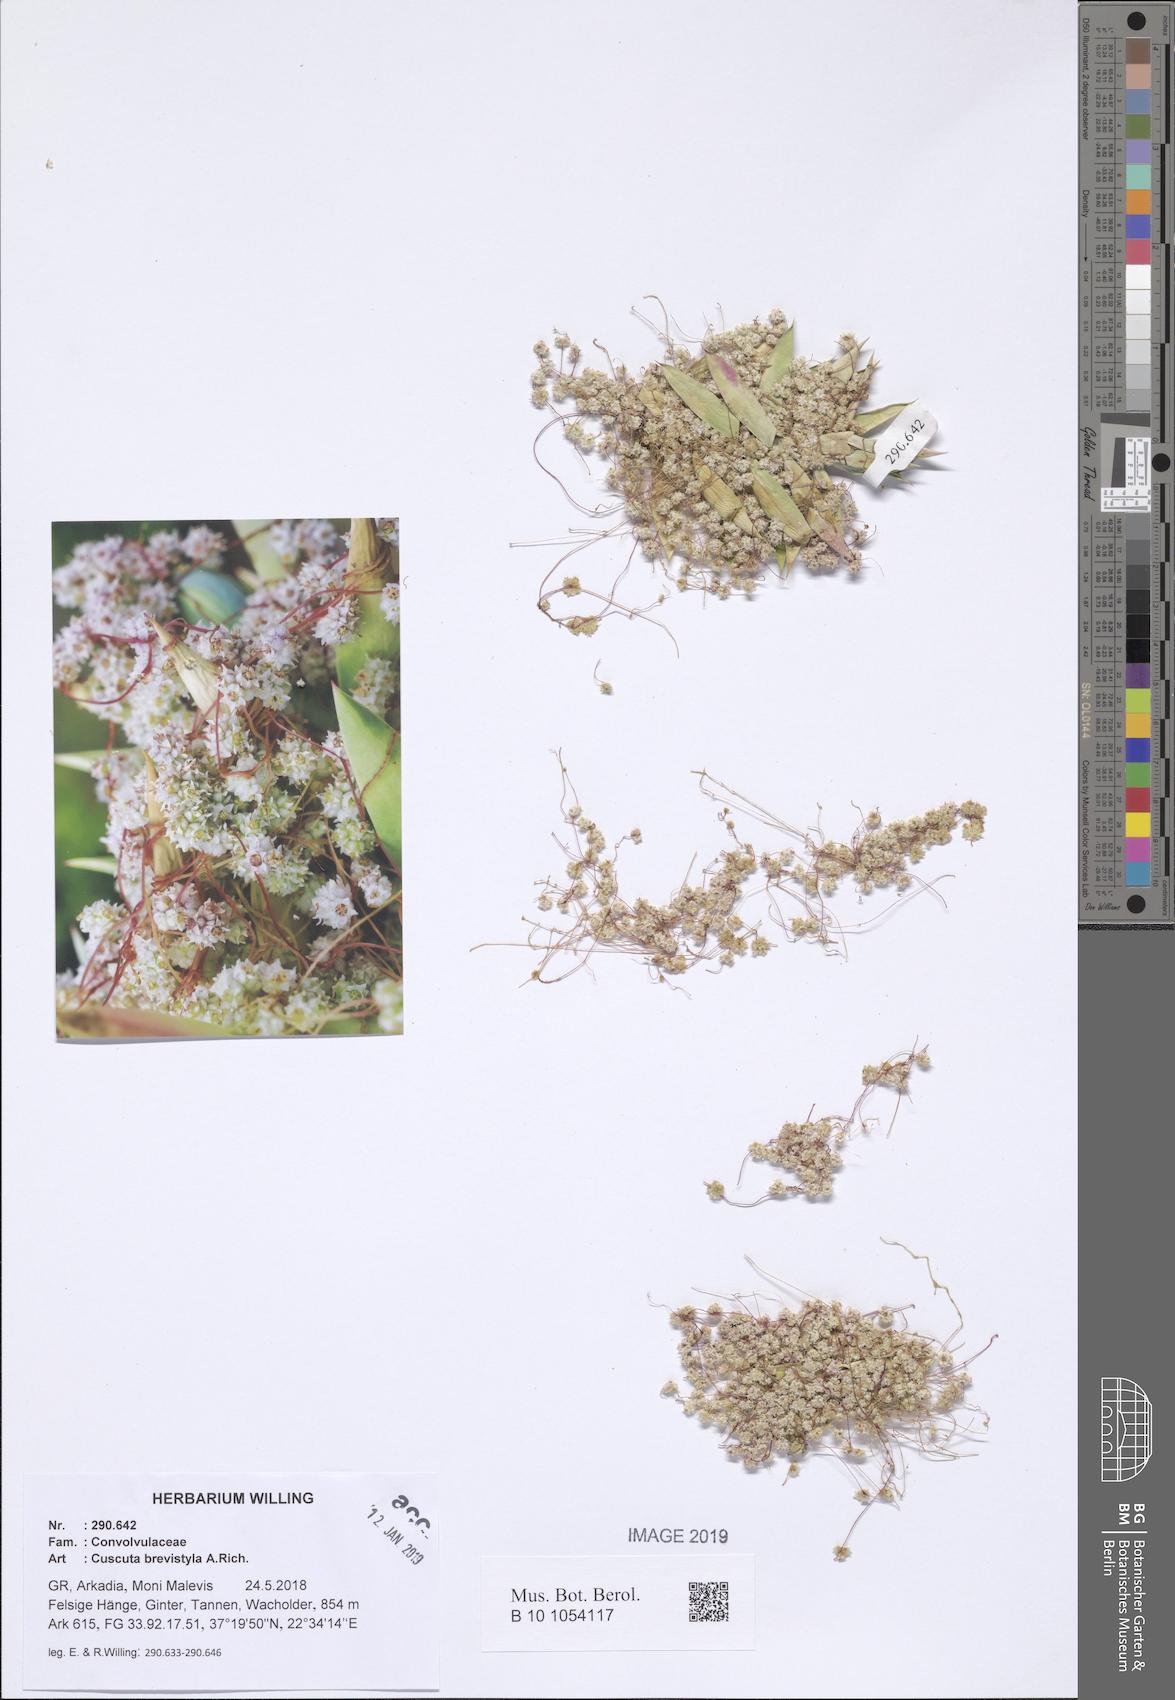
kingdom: Plantae
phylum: Tracheophyta
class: Magnoliopsida
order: Solanales
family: Convolvulaceae
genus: Cuscuta
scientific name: Cuscuta brevistyla
